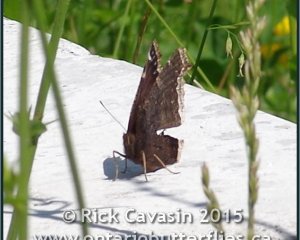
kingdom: Animalia
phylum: Arthropoda
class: Insecta
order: Lepidoptera
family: Nymphalidae
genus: Nymphalis
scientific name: Nymphalis antiopa
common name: Mourning Cloak
